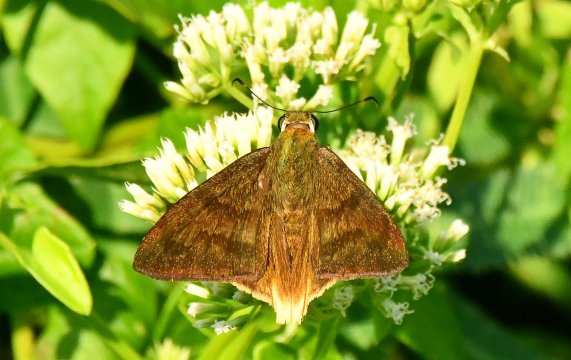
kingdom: Animalia
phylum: Arthropoda
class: Insecta
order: Lepidoptera
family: Hesperiidae
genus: Astraptes
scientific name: Astraptes anaphus
